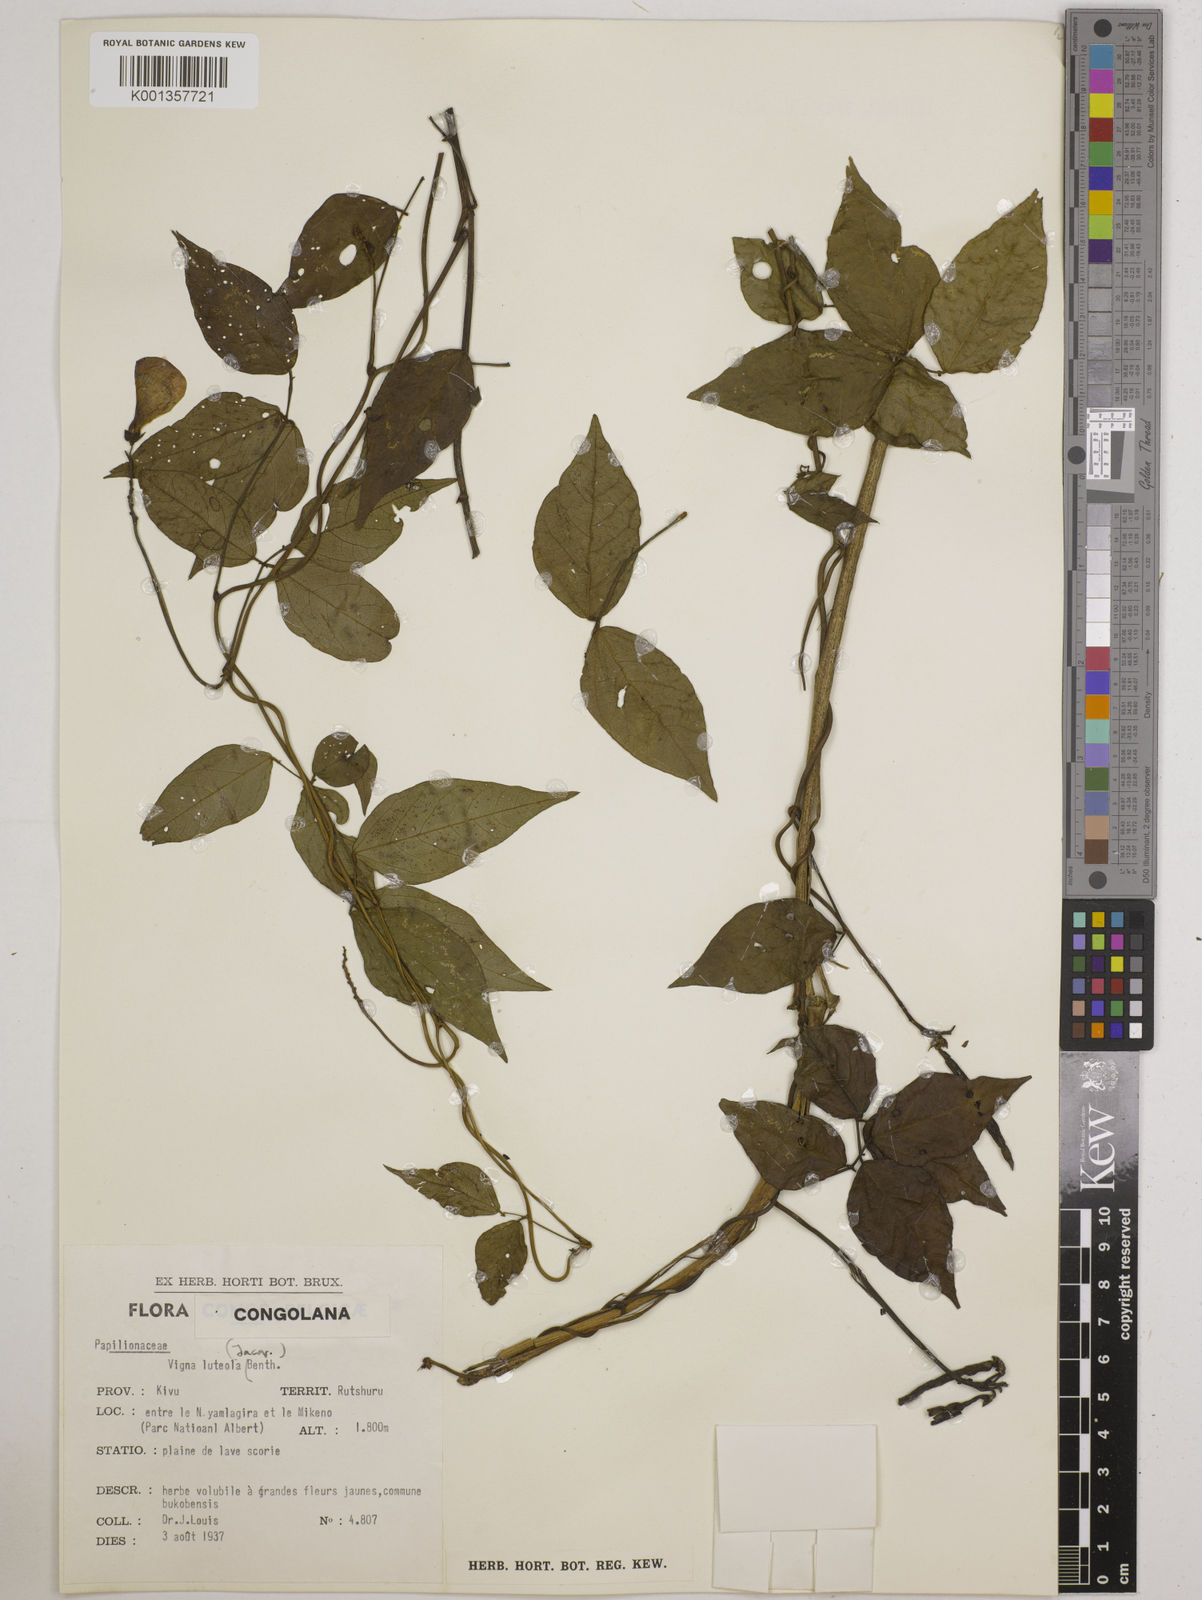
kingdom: Plantae
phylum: Tracheophyta
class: Magnoliopsida
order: Fabales
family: Fabaceae
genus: Vigna
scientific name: Vigna luteola
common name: Hairypod cowpea
